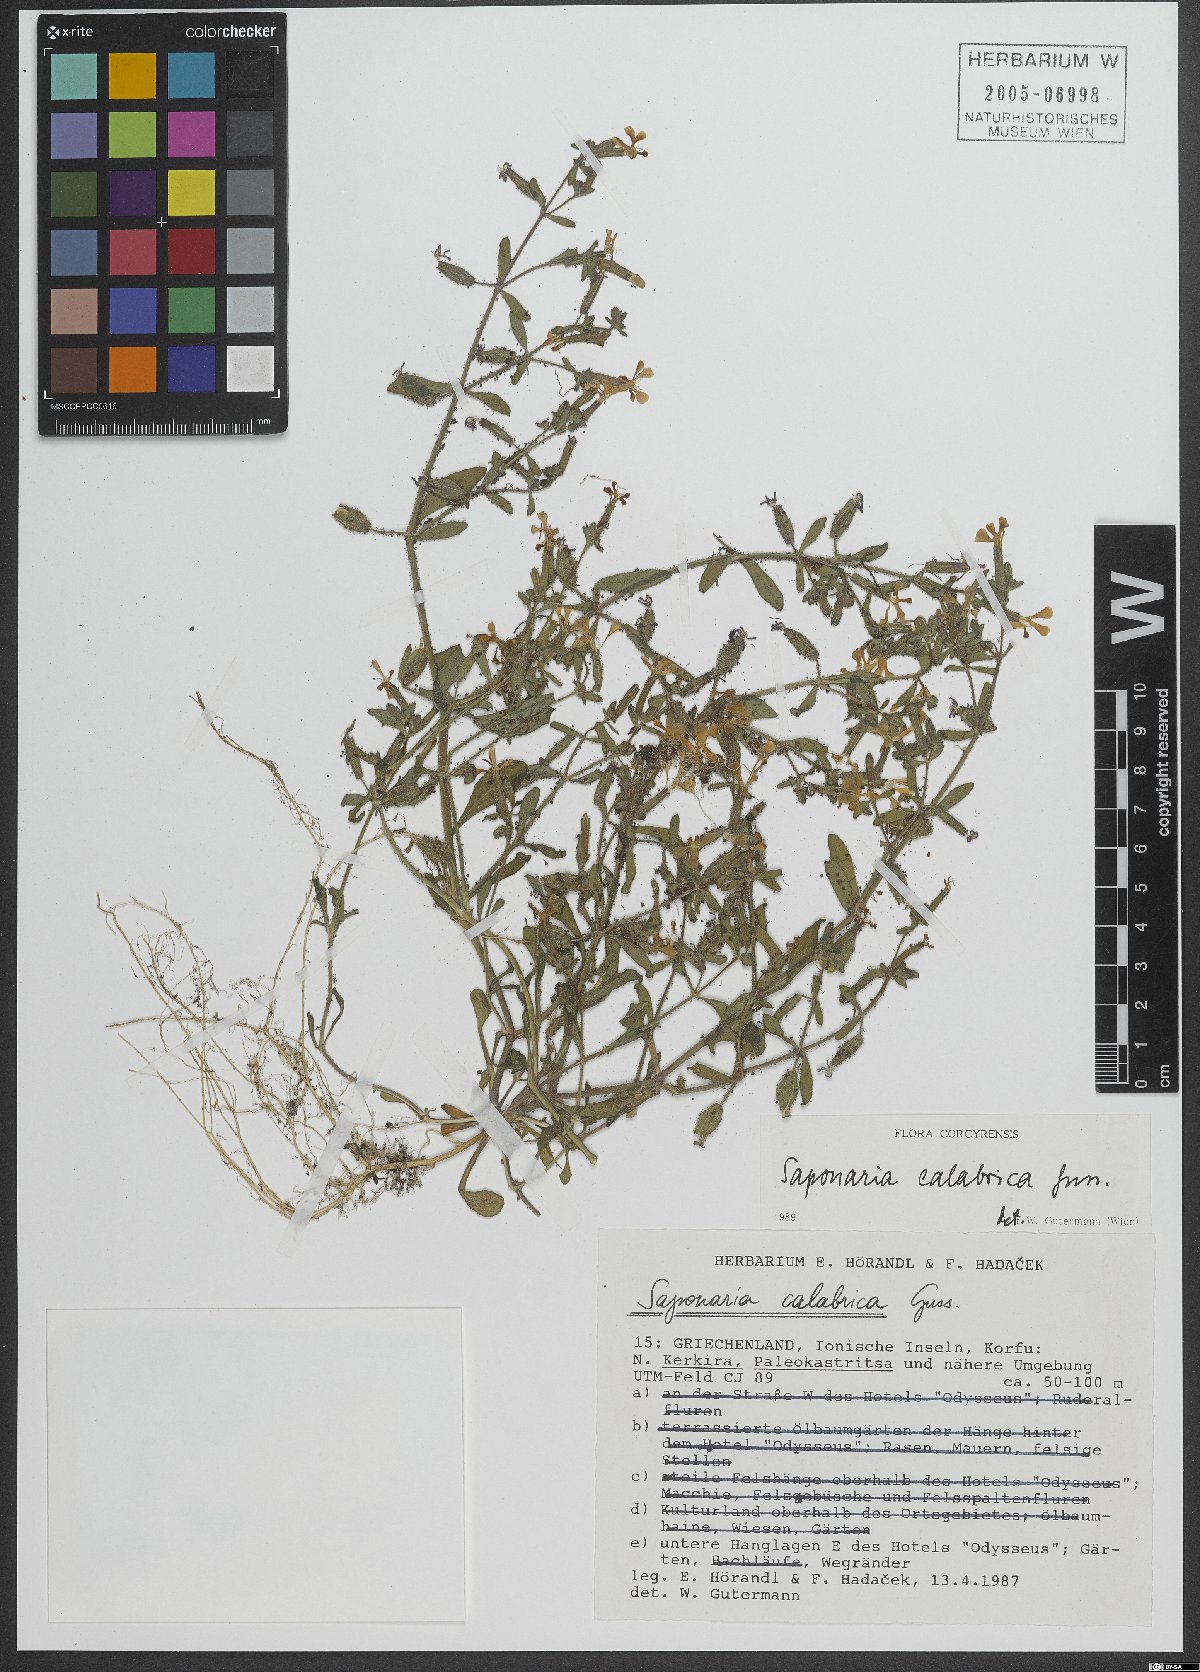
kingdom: Plantae
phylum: Tracheophyta
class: Magnoliopsida
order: Caryophyllales
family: Caryophyllaceae
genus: Saponaria
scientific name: Saponaria calabrica
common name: Adriatic soapwort
